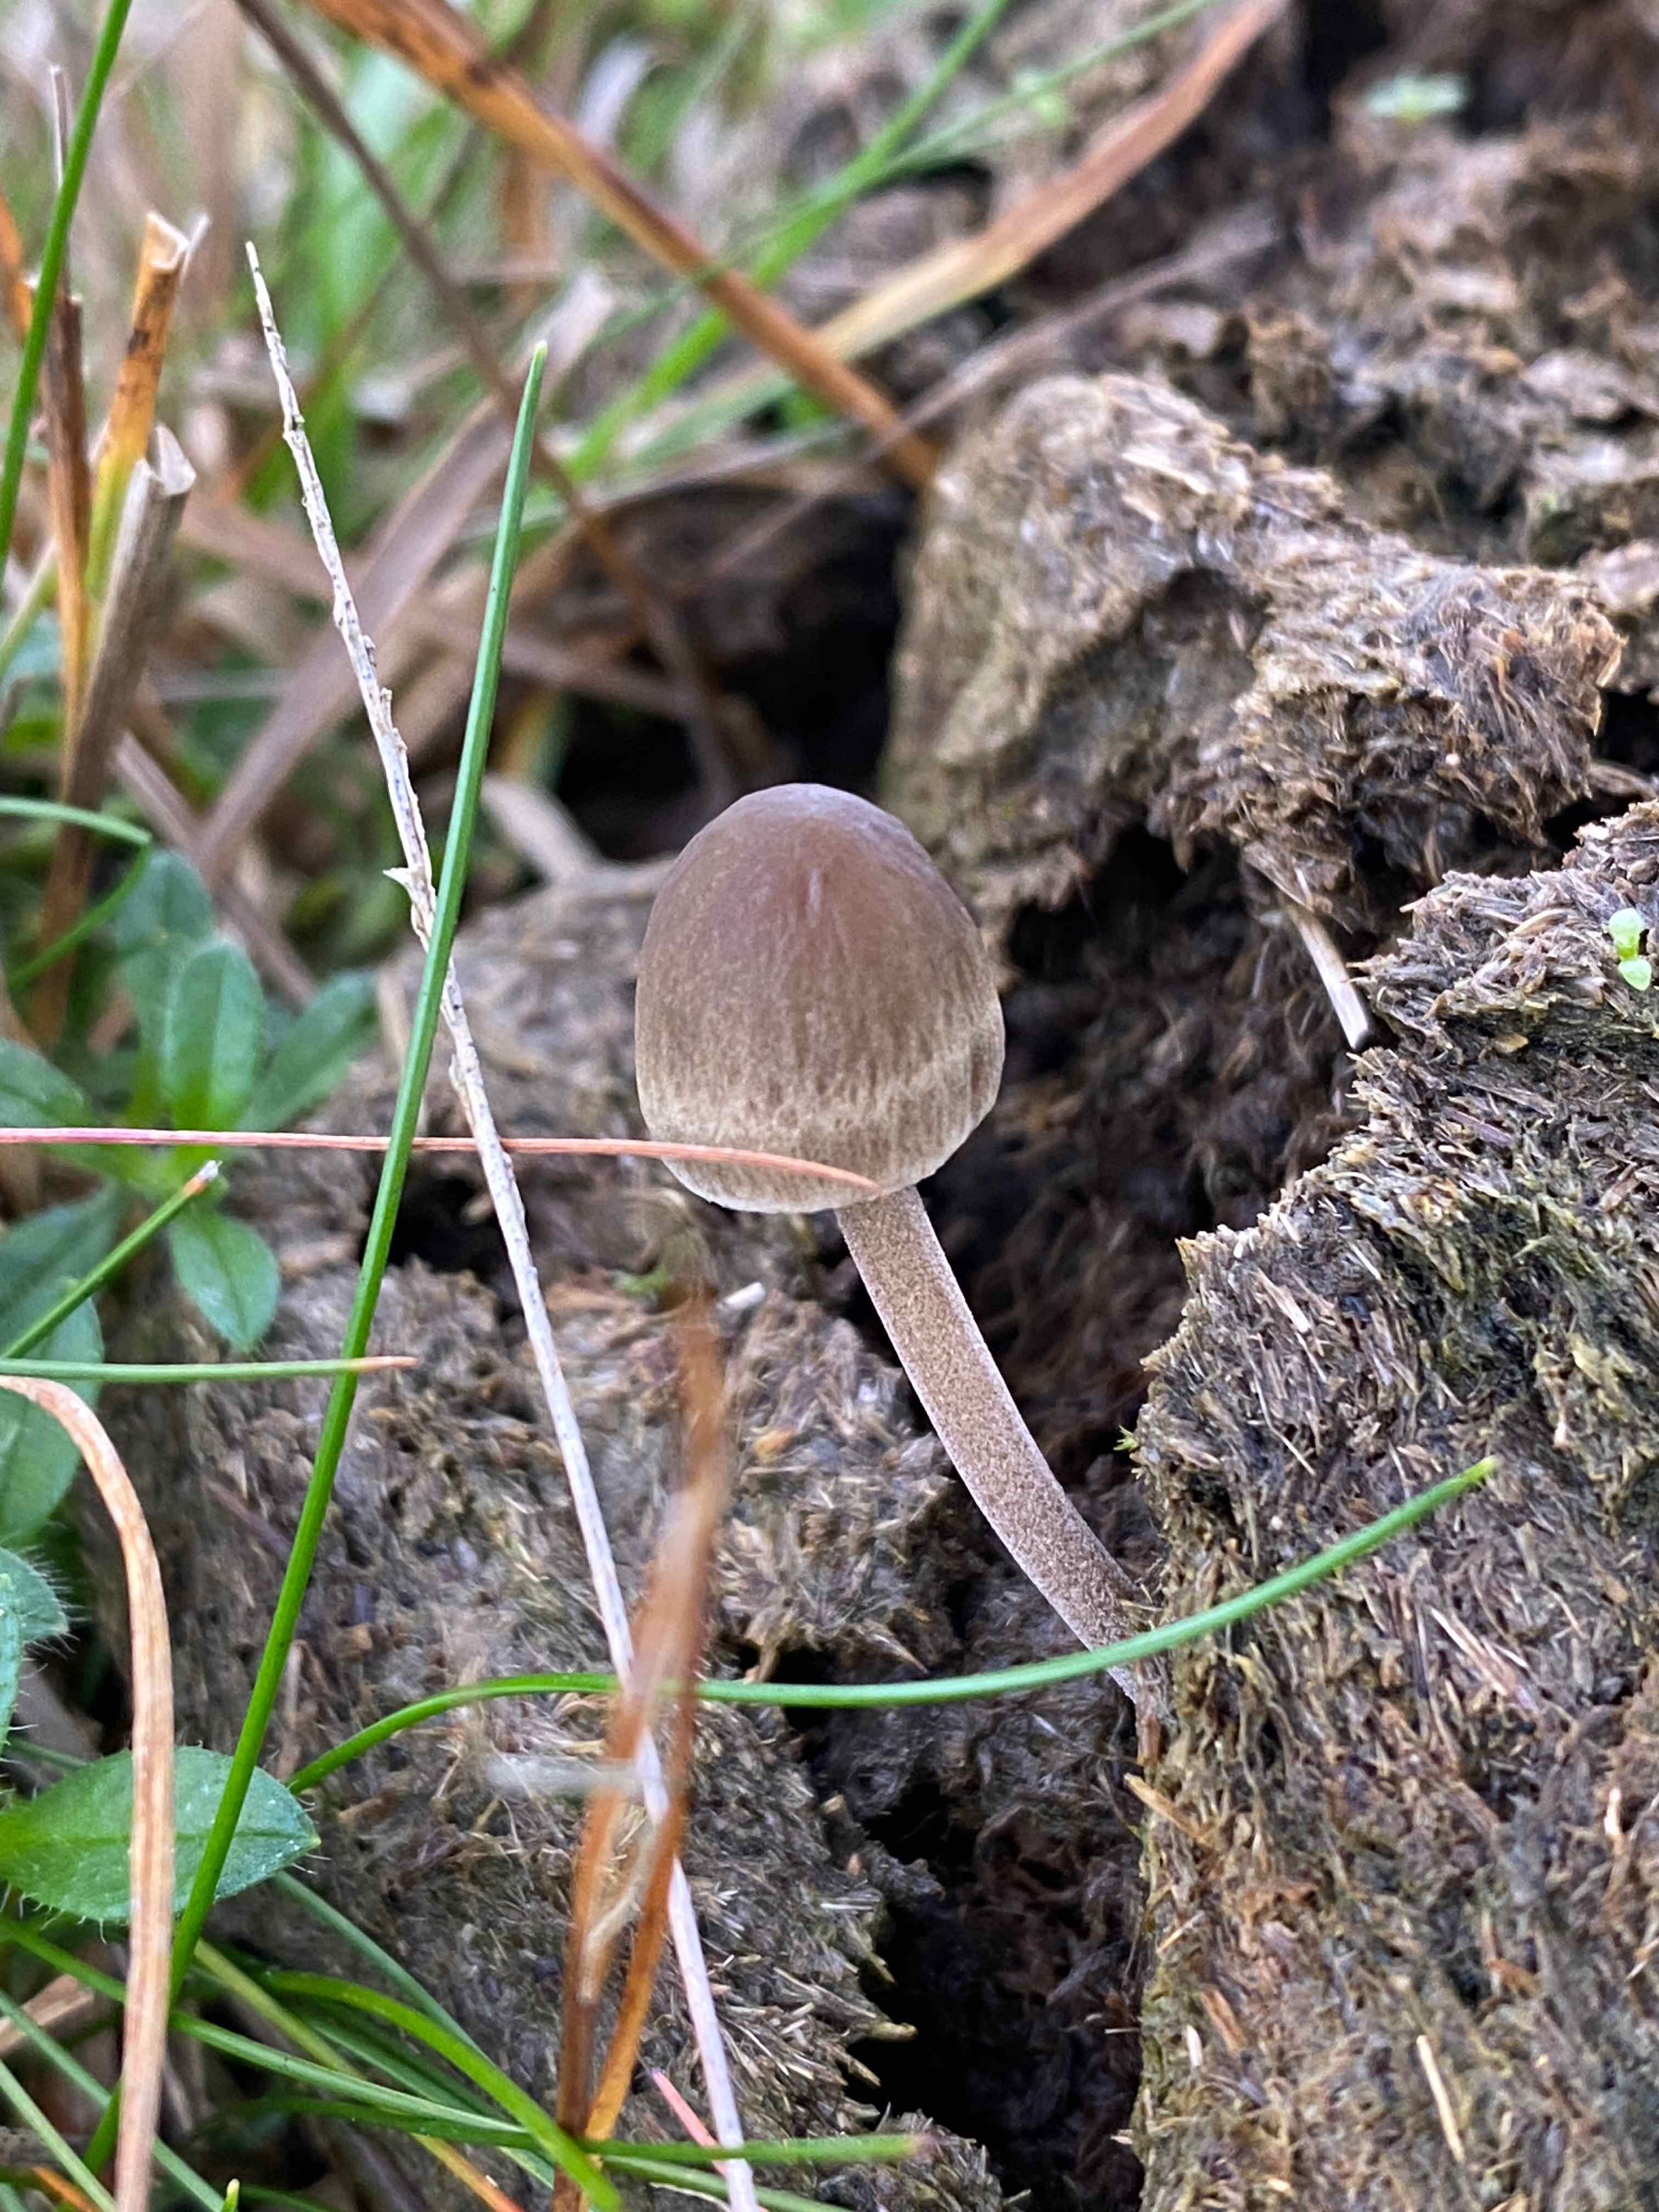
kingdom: Fungi
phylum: Basidiomycota
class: Agaricomycetes
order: Agaricales
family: Bolbitiaceae
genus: Panaeolus
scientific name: Panaeolus papilionaceus
